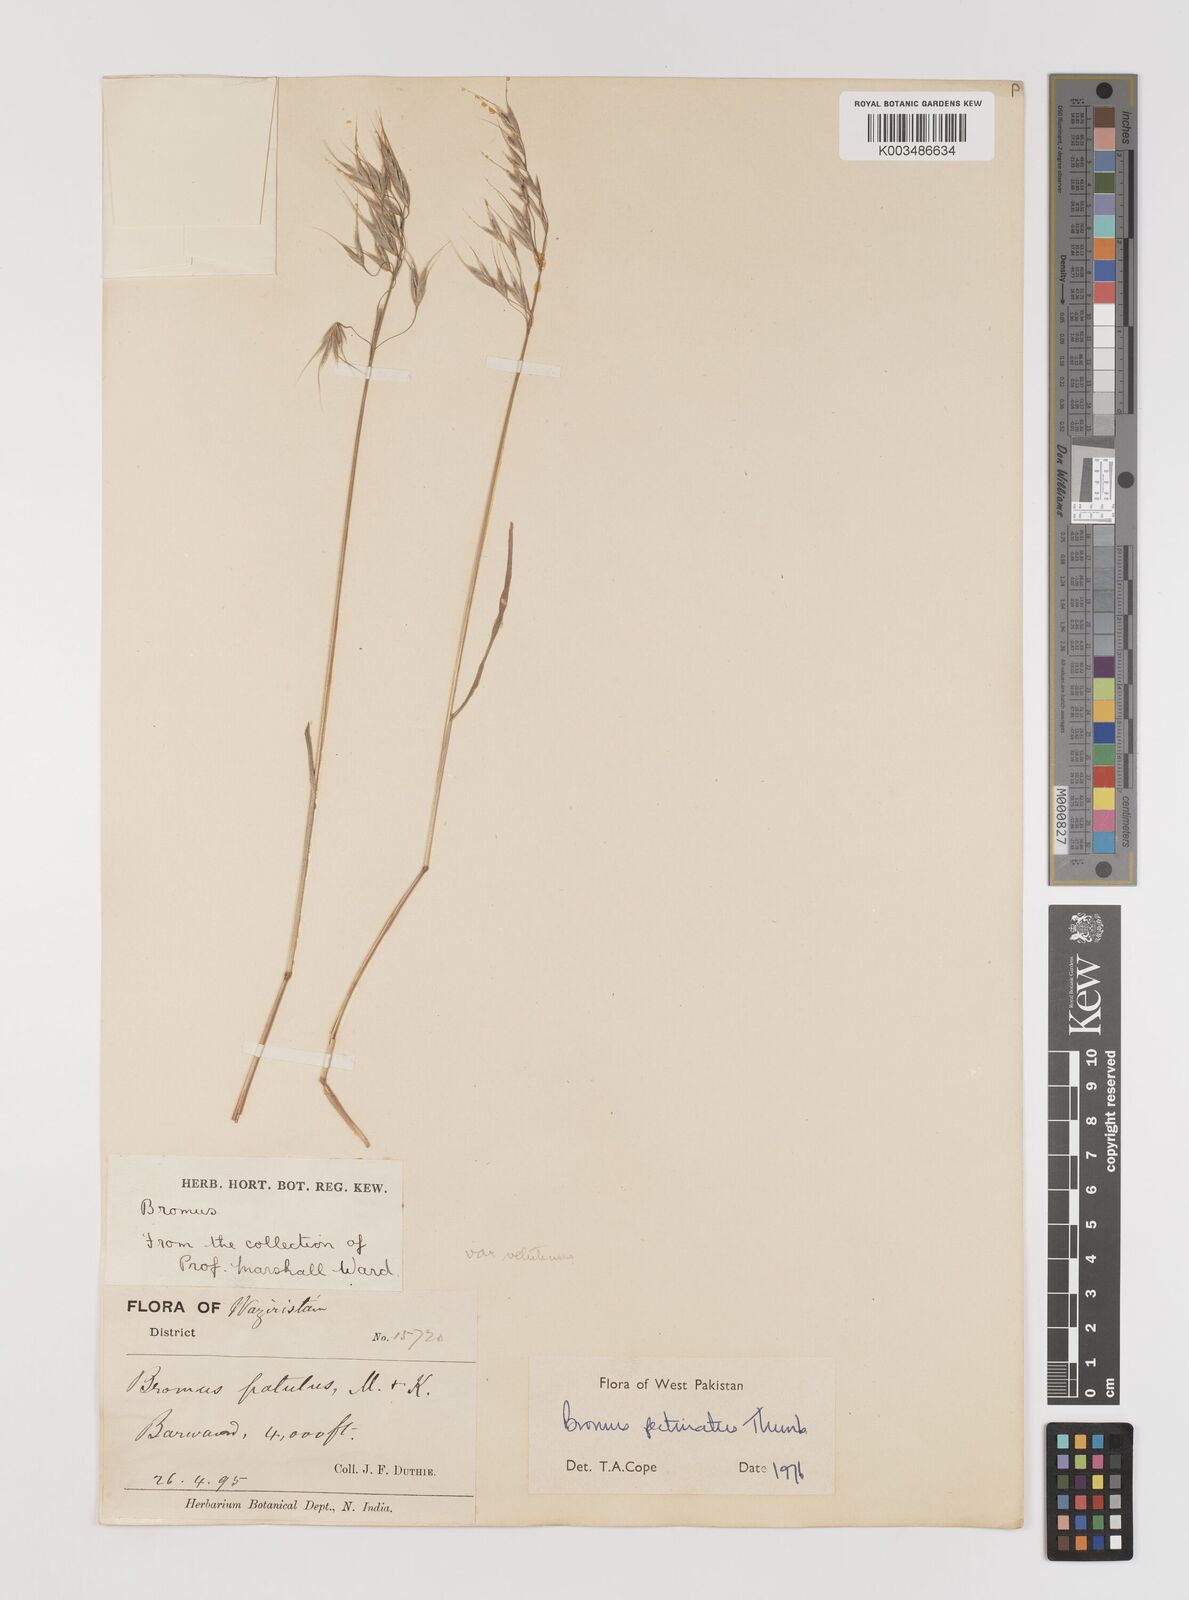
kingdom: Plantae
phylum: Tracheophyta
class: Liliopsida
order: Poales
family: Poaceae
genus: Bromus
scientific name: Bromus pectinatus
